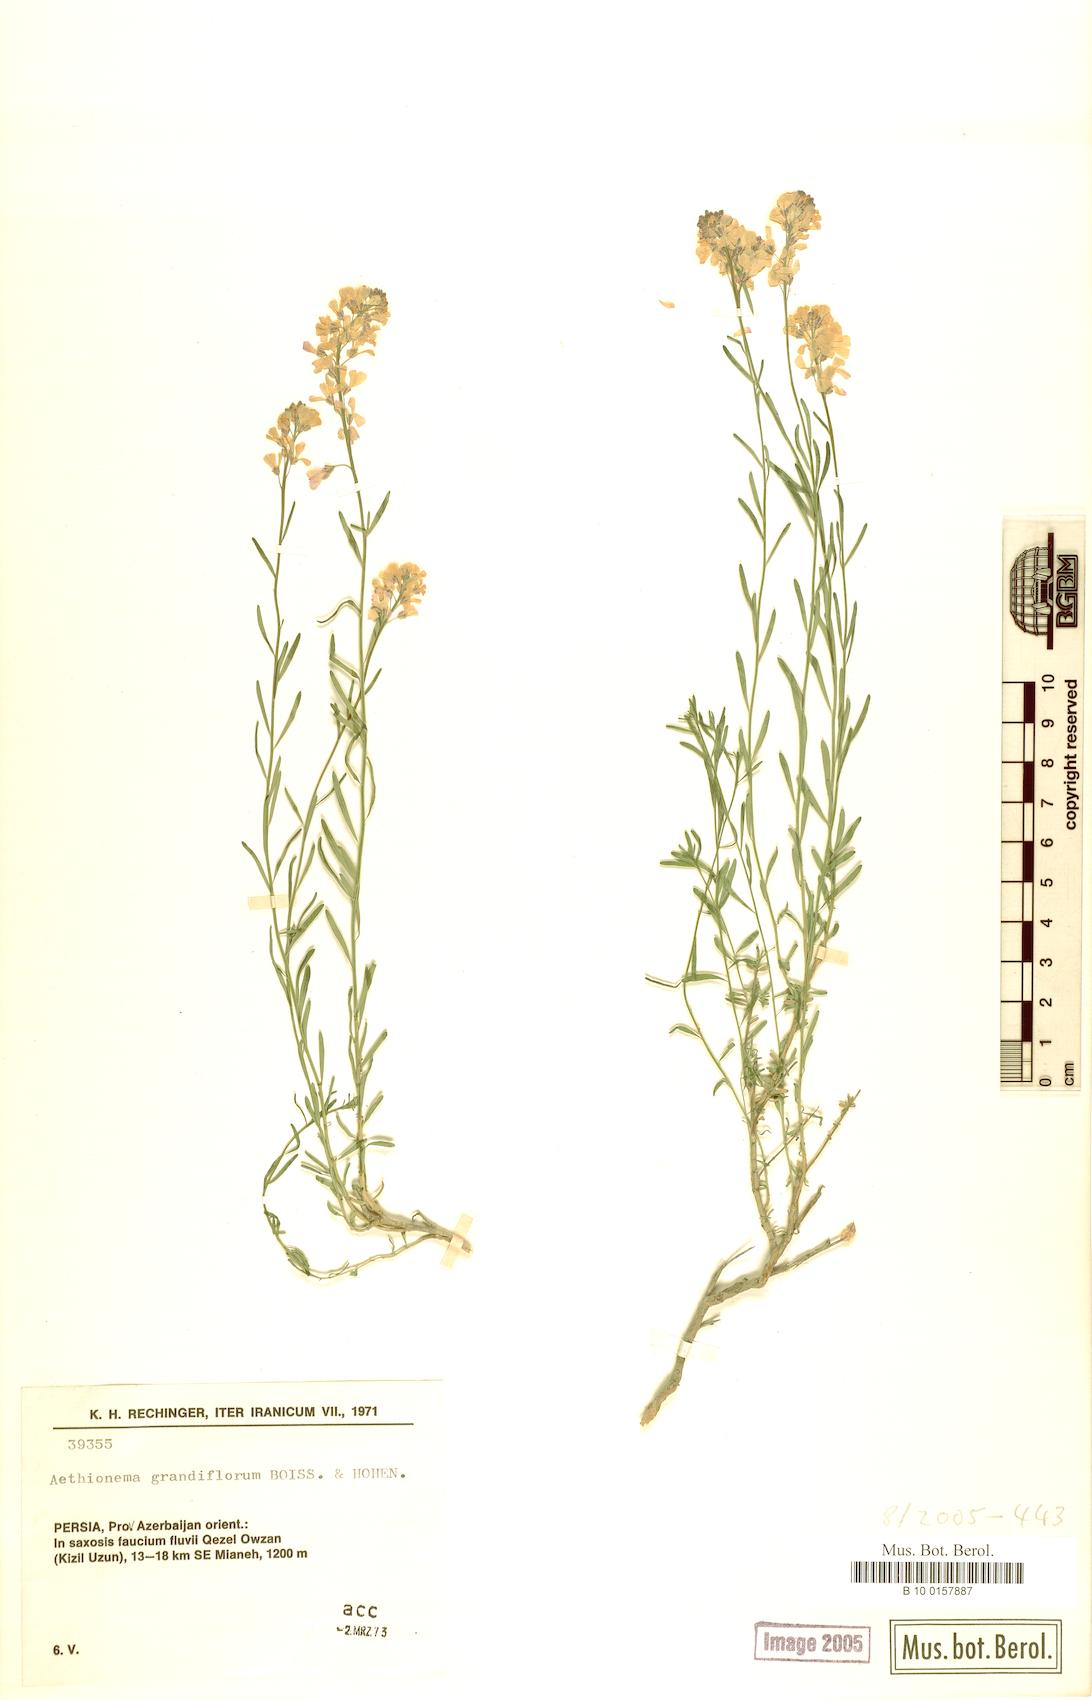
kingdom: Plantae
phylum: Tracheophyta
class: Magnoliopsida
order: Brassicales
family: Brassicaceae
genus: Aethionema
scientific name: Aethionema grandiflorum
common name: Persian stonecress
